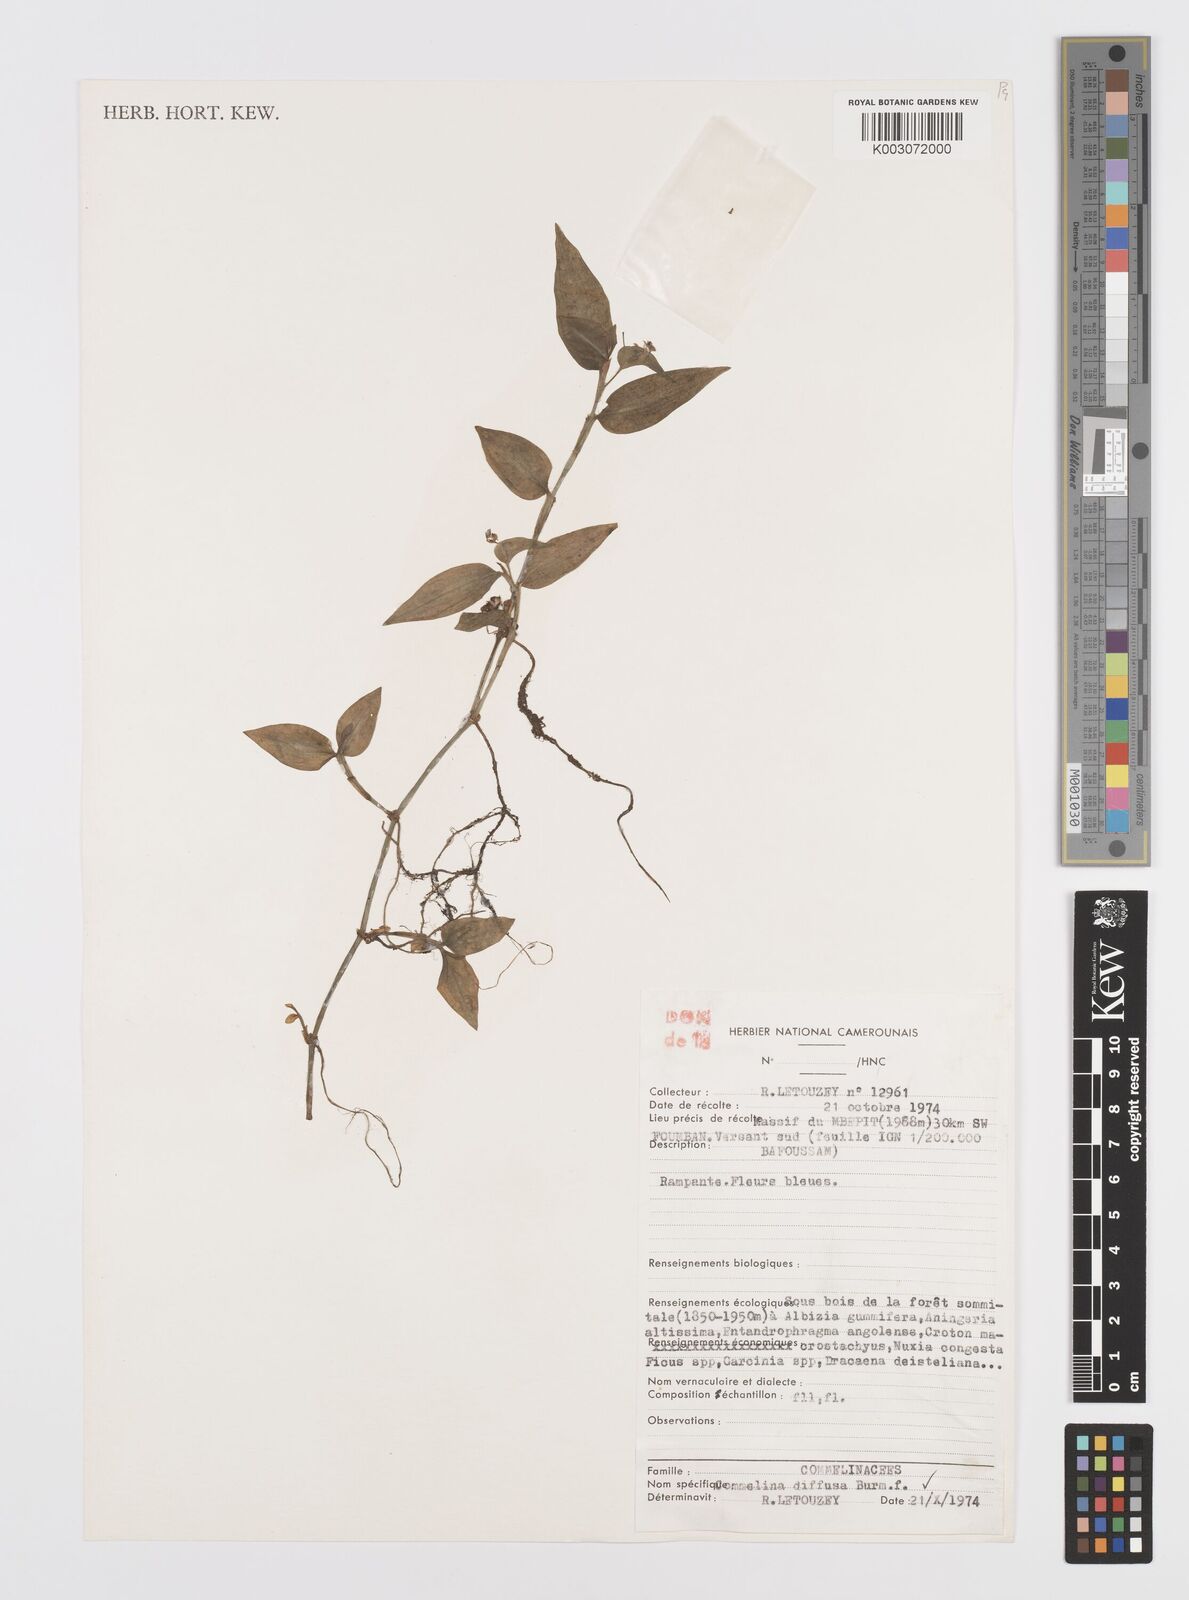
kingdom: Plantae
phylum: Tracheophyta
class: Liliopsida
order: Commelinales
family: Commelinaceae
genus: Commelina
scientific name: Commelina diffusa
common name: Climbing dayflower
